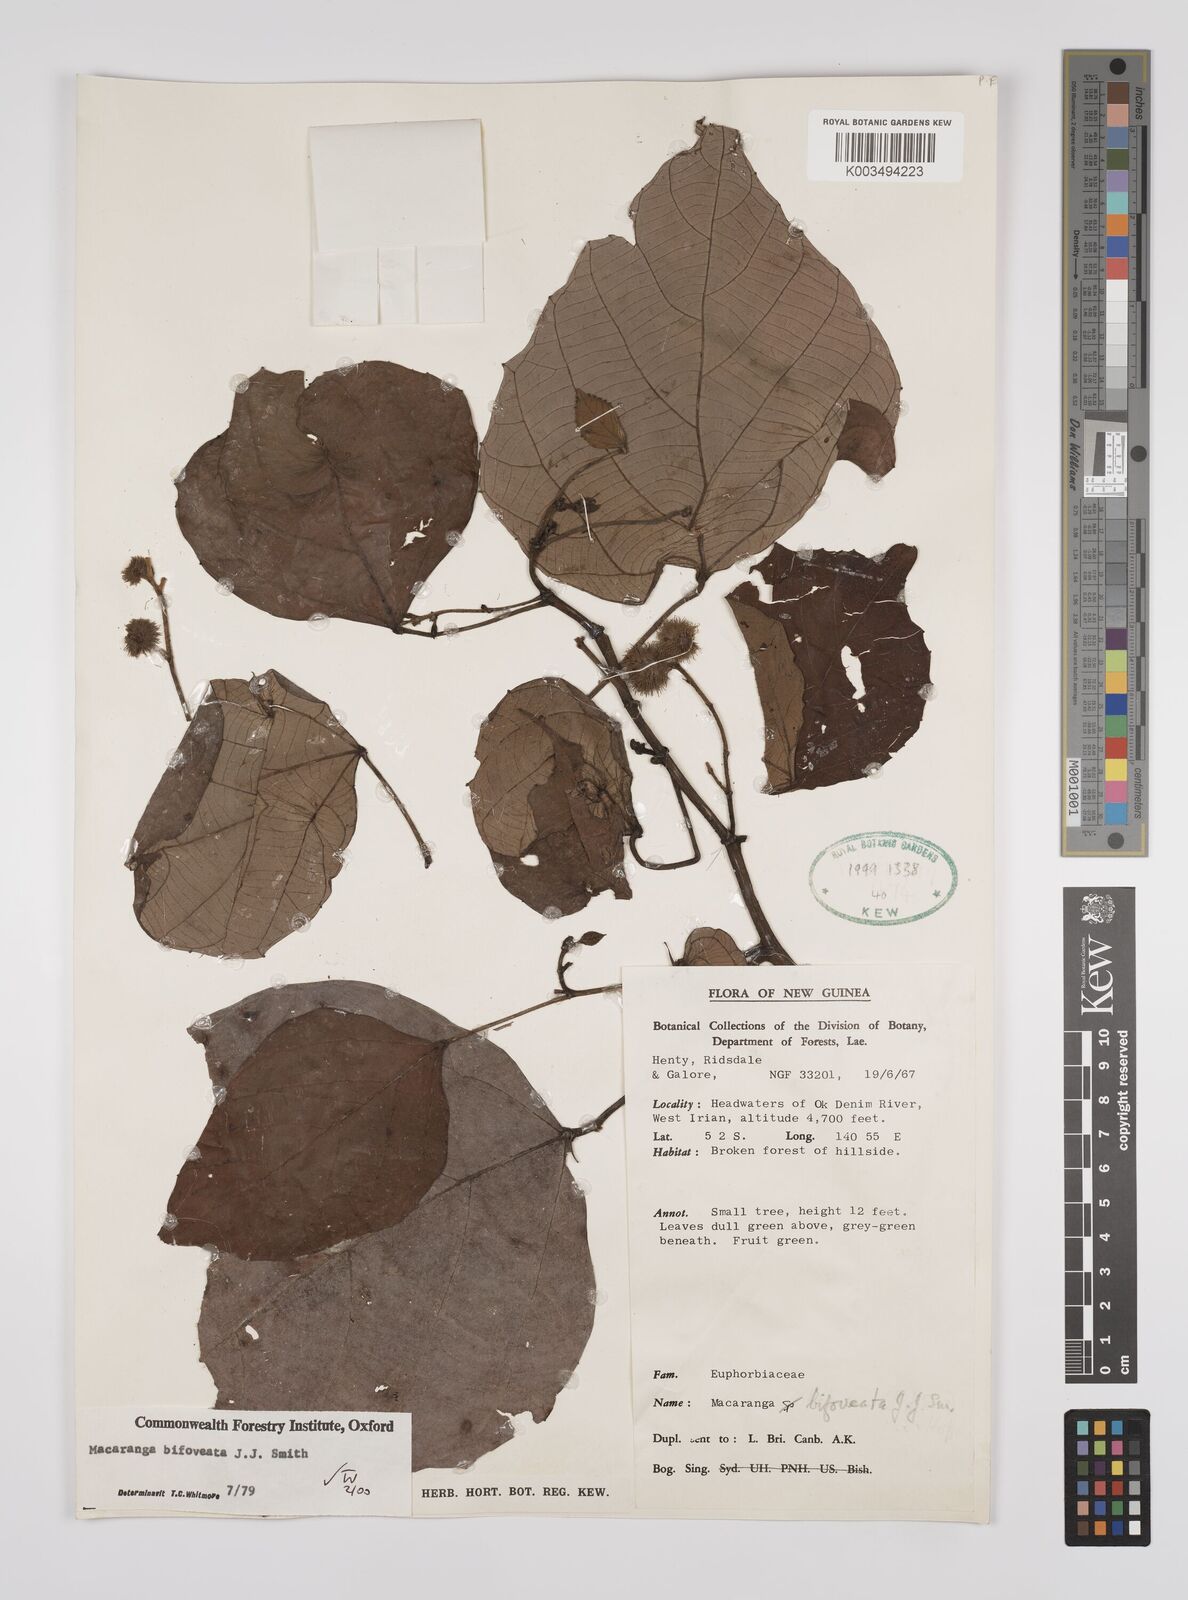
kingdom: Plantae
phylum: Tracheophyta
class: Magnoliopsida
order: Malpighiales
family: Euphorbiaceae
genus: Macaranga
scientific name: Macaranga bifoveata
